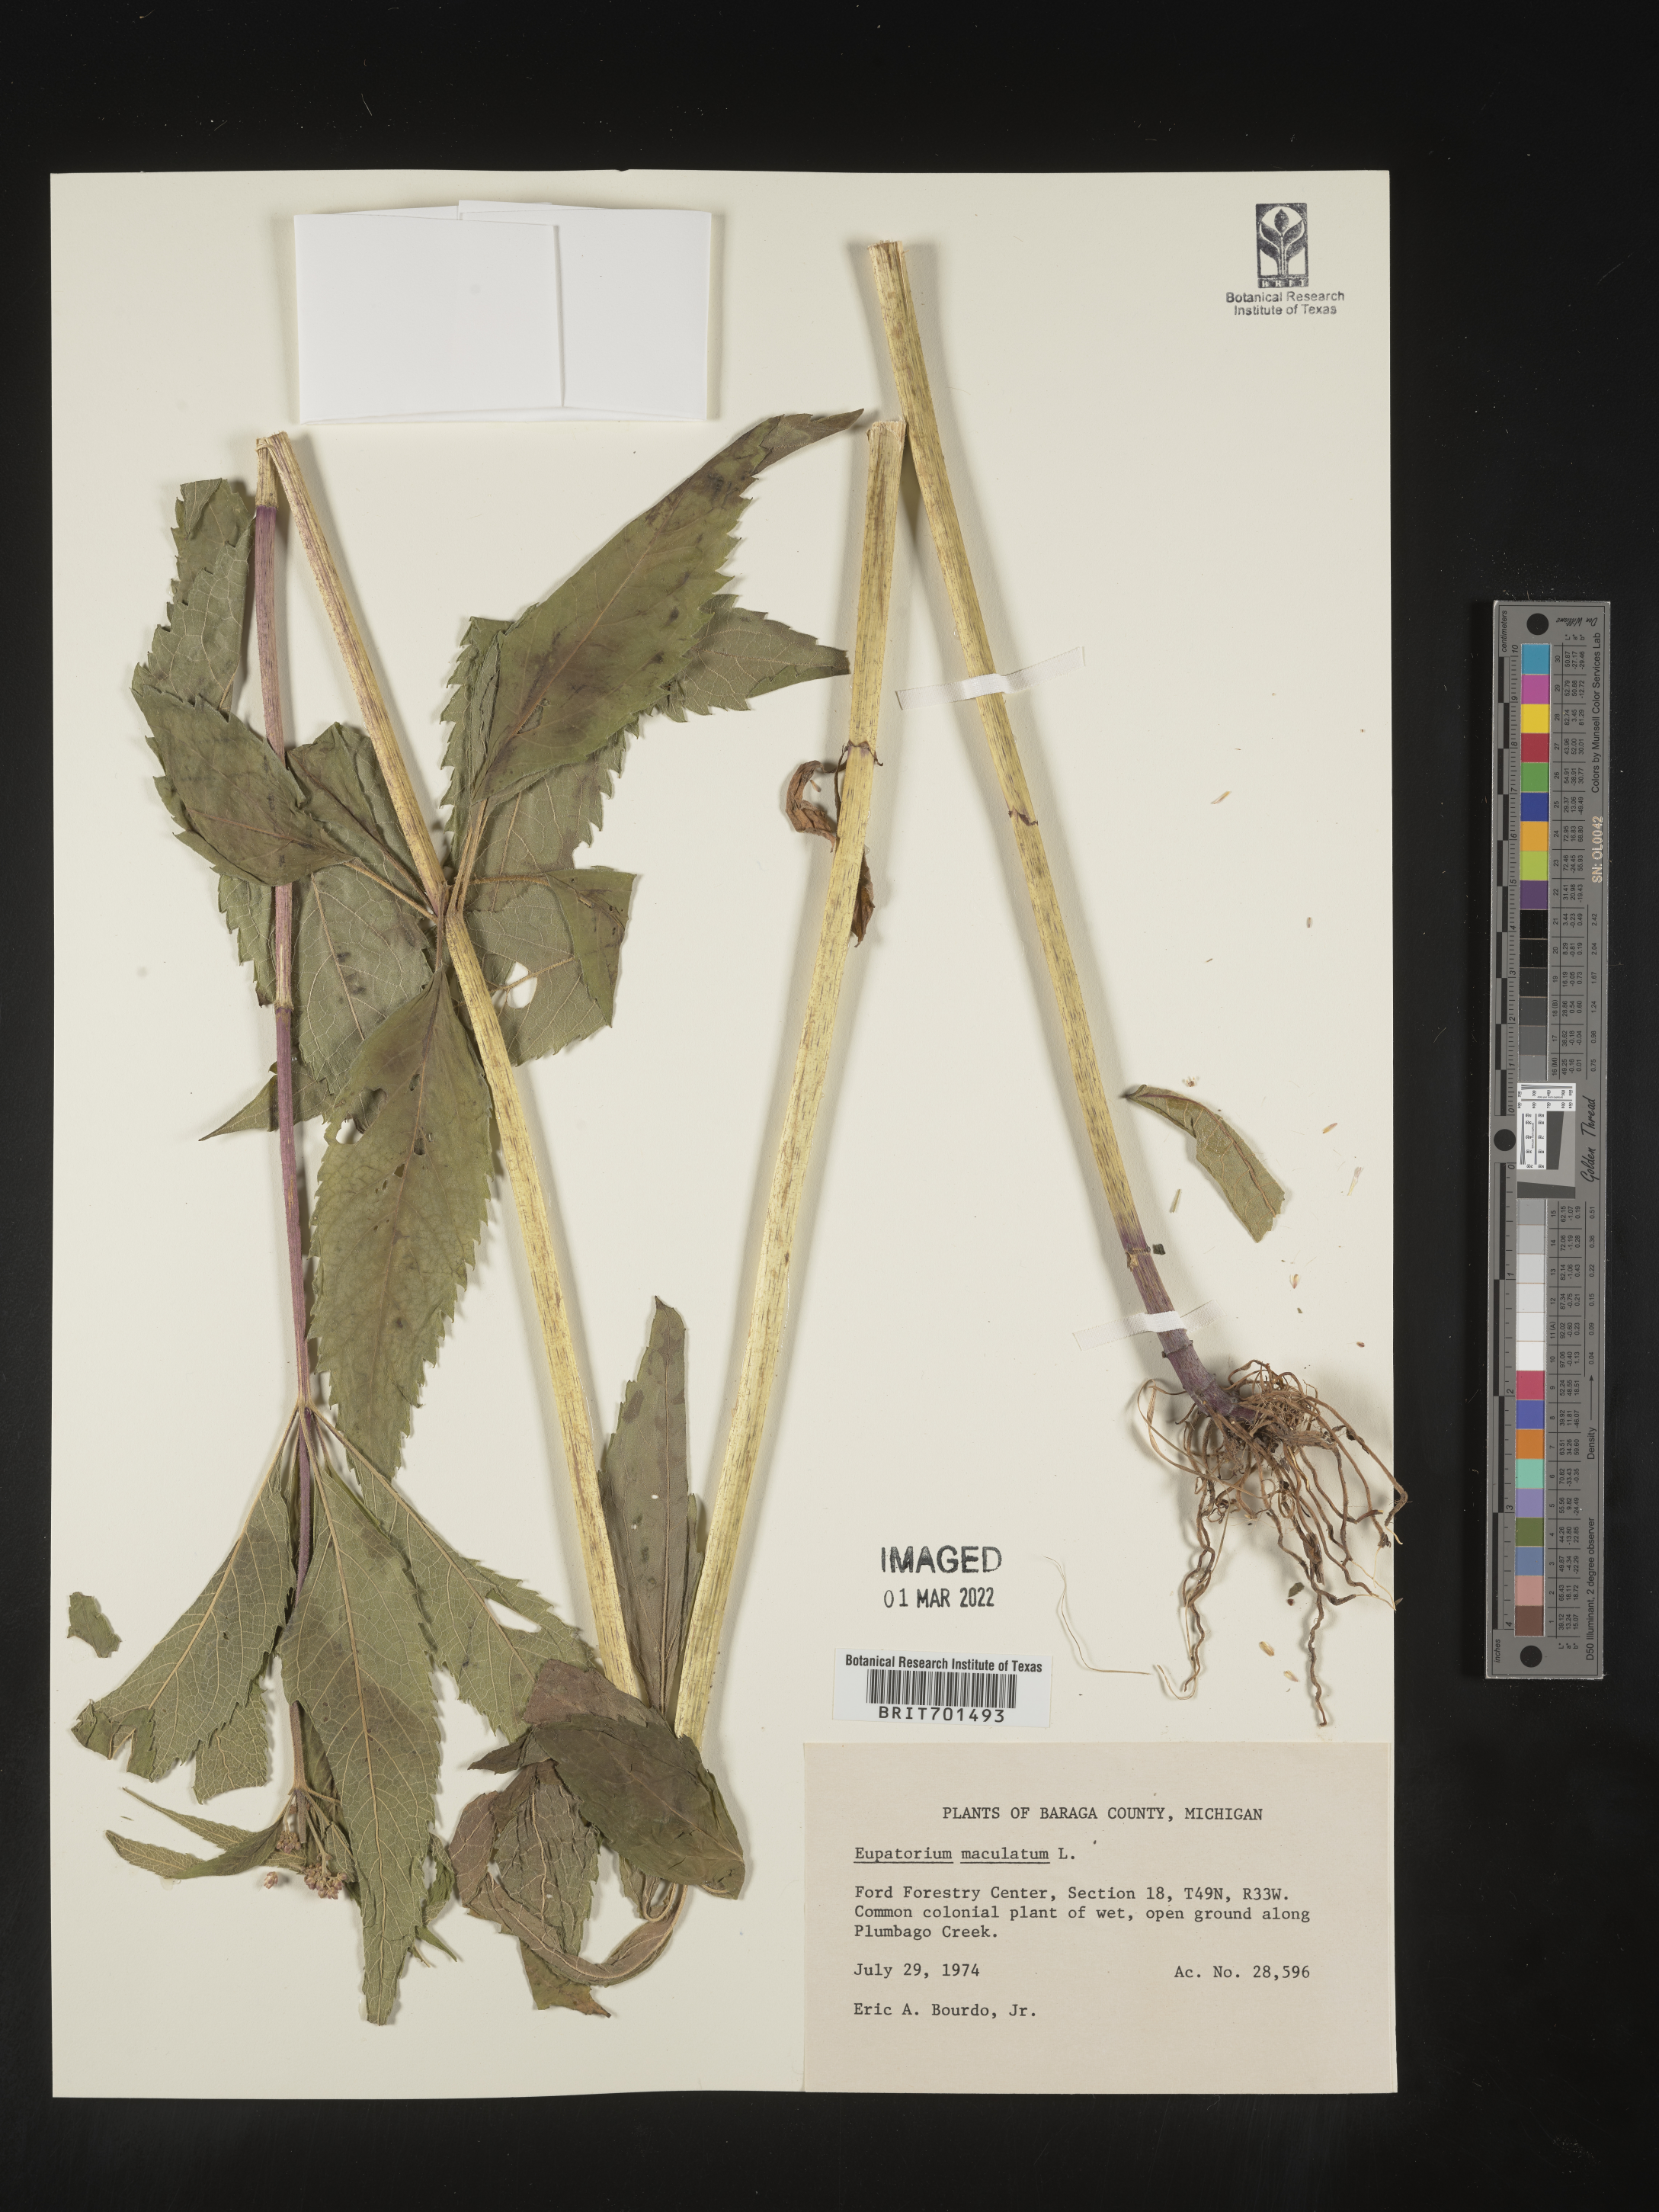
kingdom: Plantae
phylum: Tracheophyta
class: Magnoliopsida
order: Asterales
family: Asteraceae
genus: Eutrochium
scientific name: Eutrochium maculatum
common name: Spotted joe pye weed
